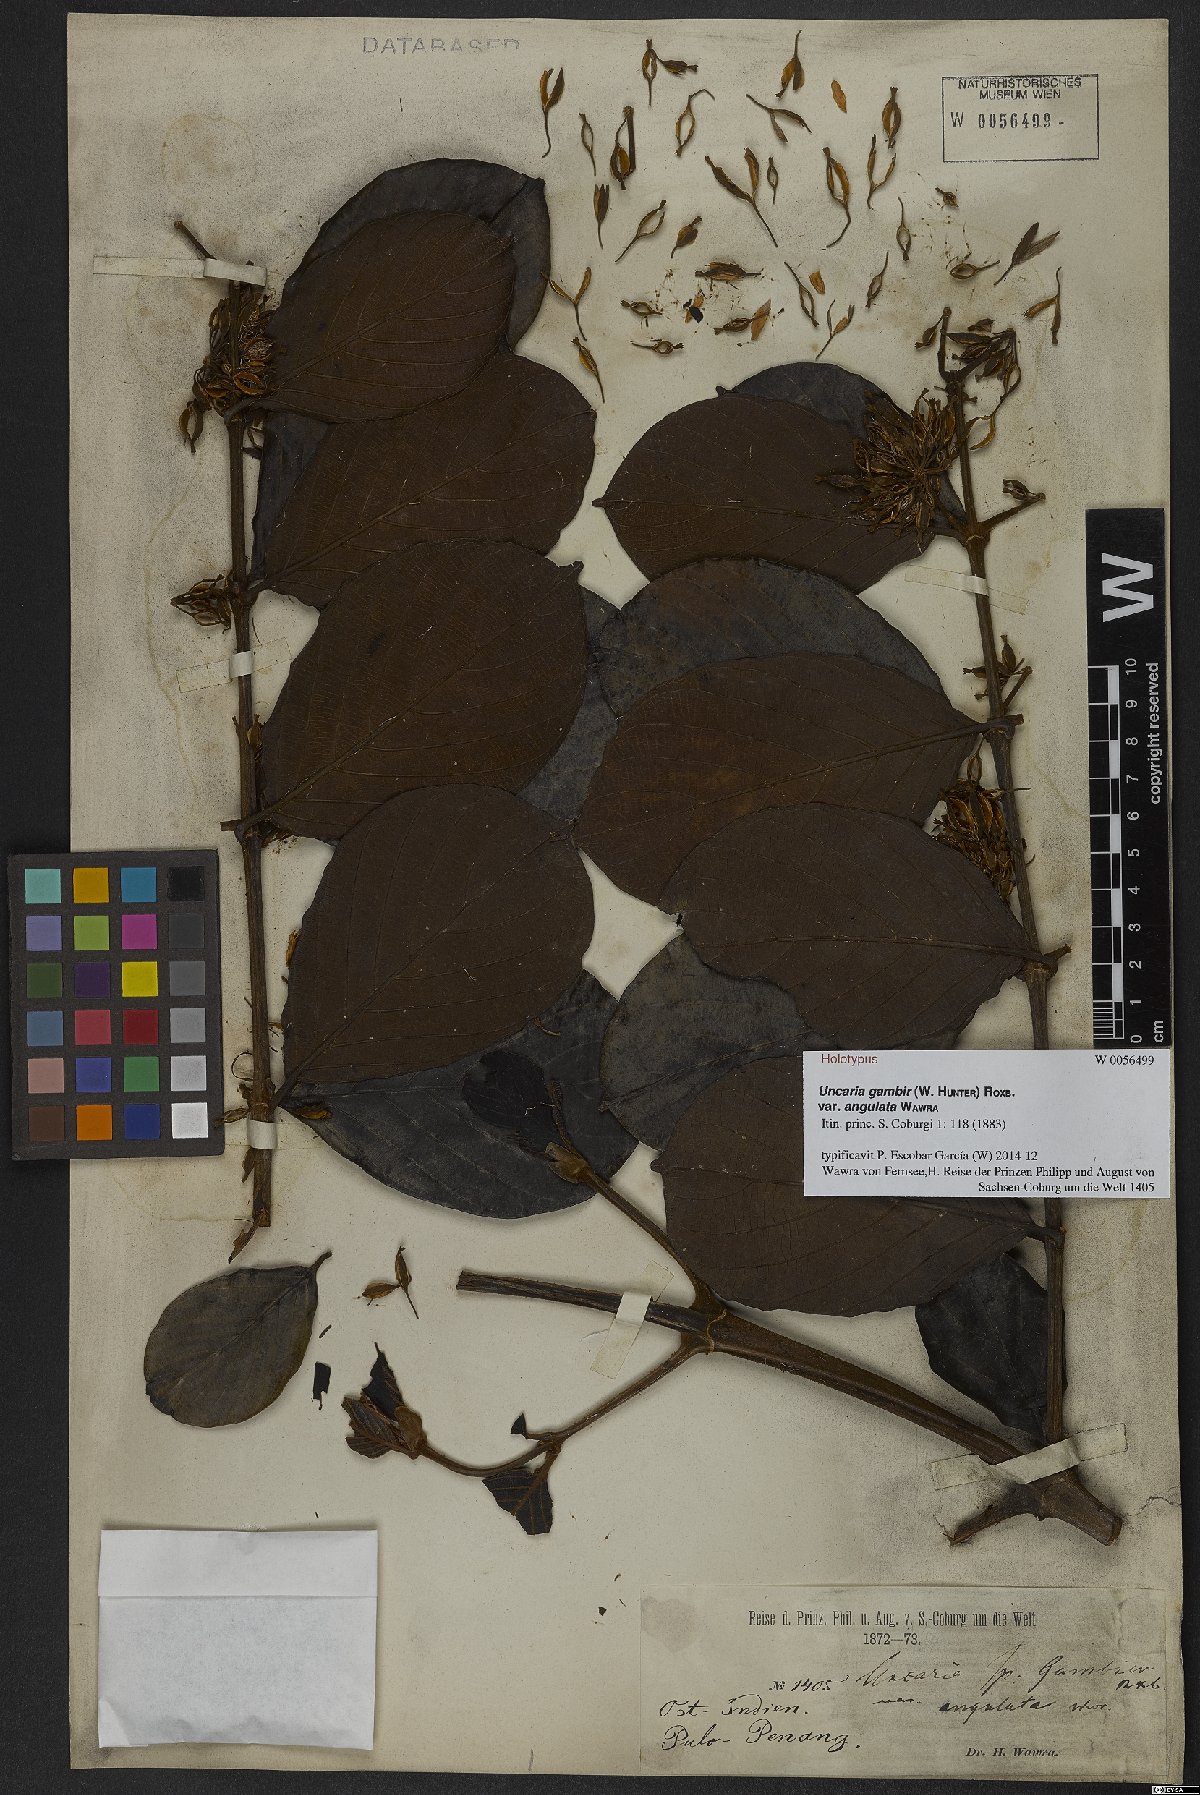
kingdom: Plantae
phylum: Tracheophyta
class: Magnoliopsida
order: Gentianales
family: Rubiaceae
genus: Uncaria
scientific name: Uncaria gambir
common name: Pale catechu
